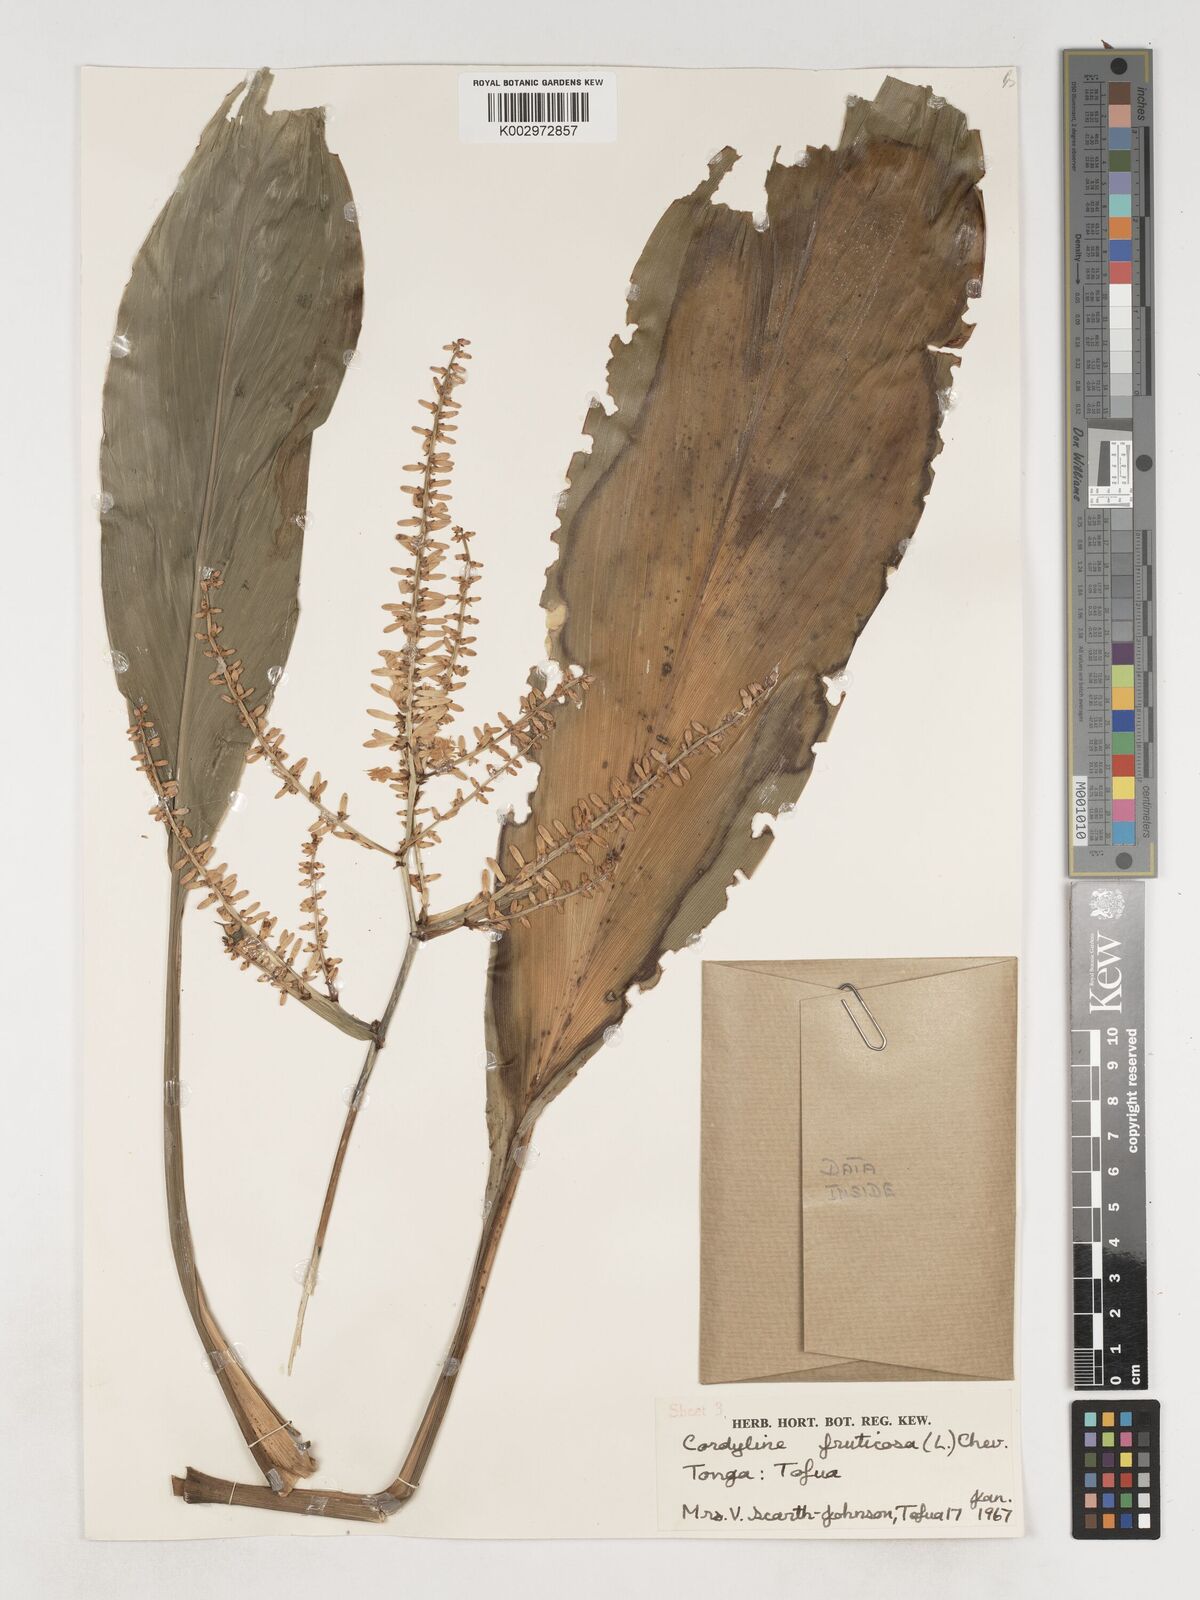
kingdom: Plantae
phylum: Tracheophyta
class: Liliopsida
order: Asparagales
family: Asparagaceae
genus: Cordyline
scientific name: Cordyline fruticosa
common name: Good-luck-plant
